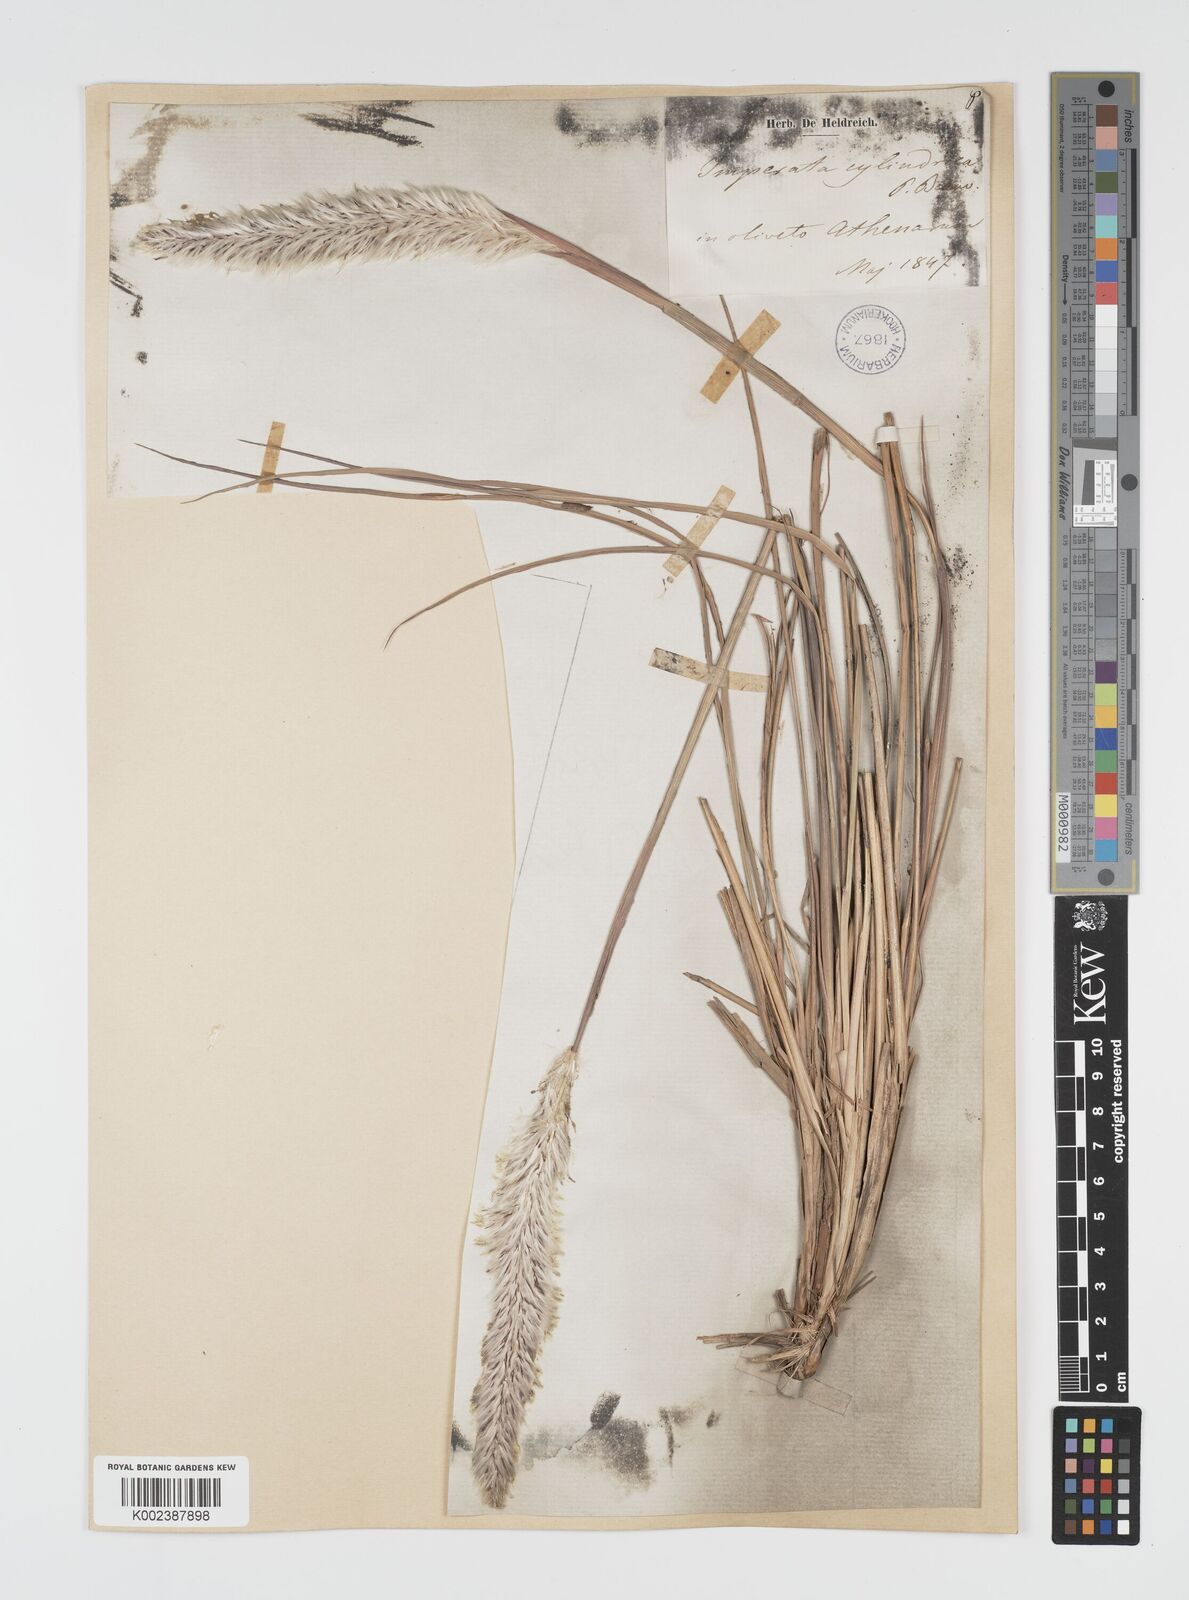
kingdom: Plantae
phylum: Tracheophyta
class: Liliopsida
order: Poales
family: Poaceae
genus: Imperata
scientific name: Imperata cylindrica
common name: Cogongrass
